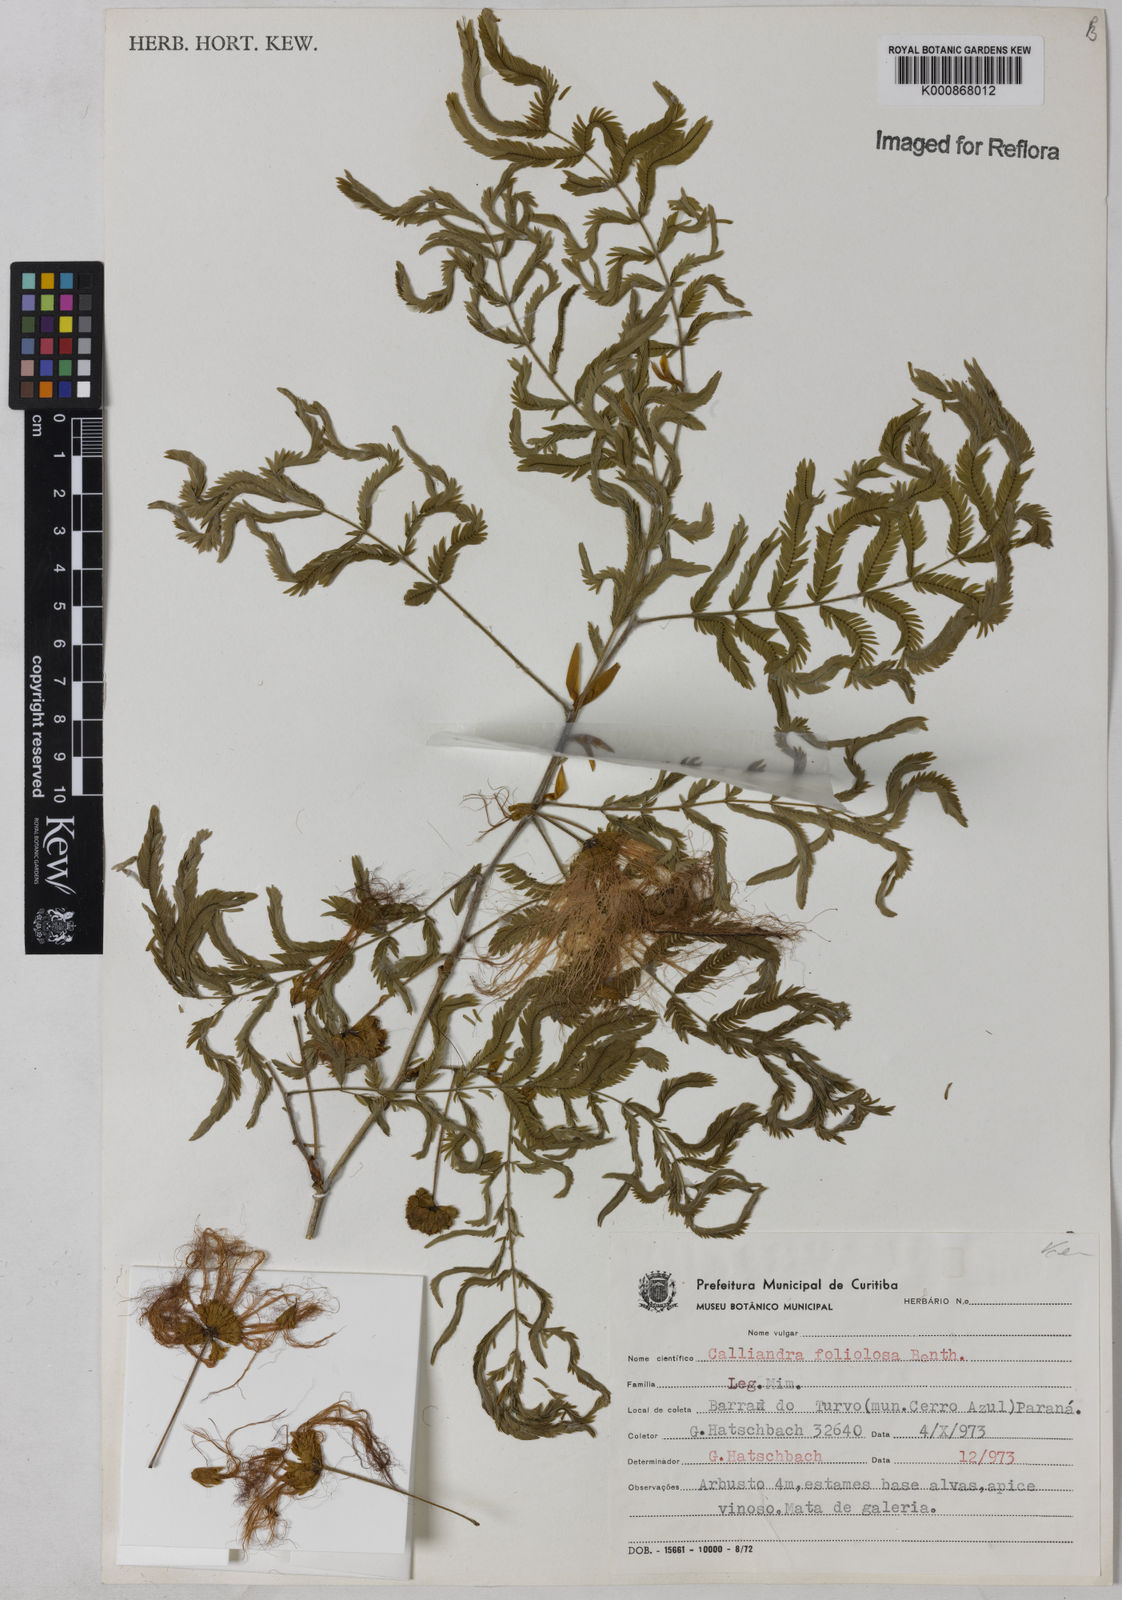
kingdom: Plantae
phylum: Tracheophyta
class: Magnoliopsida
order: Fabales
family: Fabaceae
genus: Calliandra
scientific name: Calliandra foliolosa
